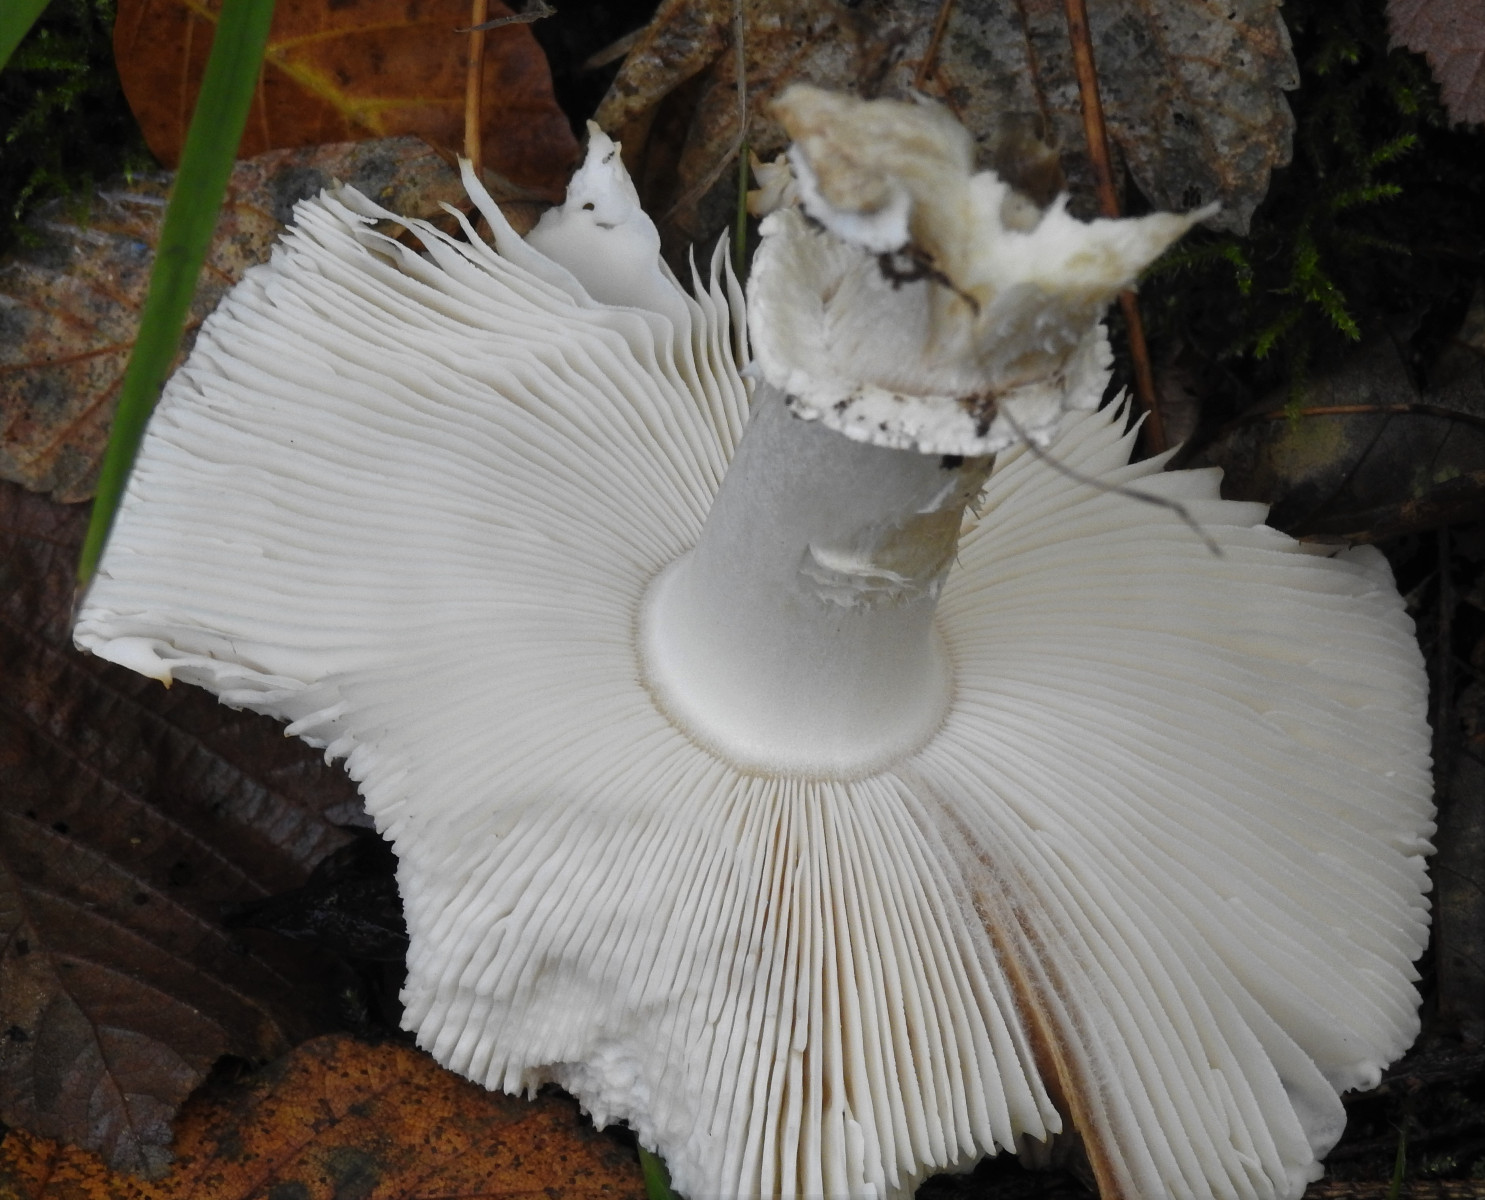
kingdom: Fungi
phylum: Basidiomycota
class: Agaricomycetes
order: Agaricales
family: Amanitaceae
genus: Amanita
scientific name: Amanita pantherina
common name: panter-fluesvamp
